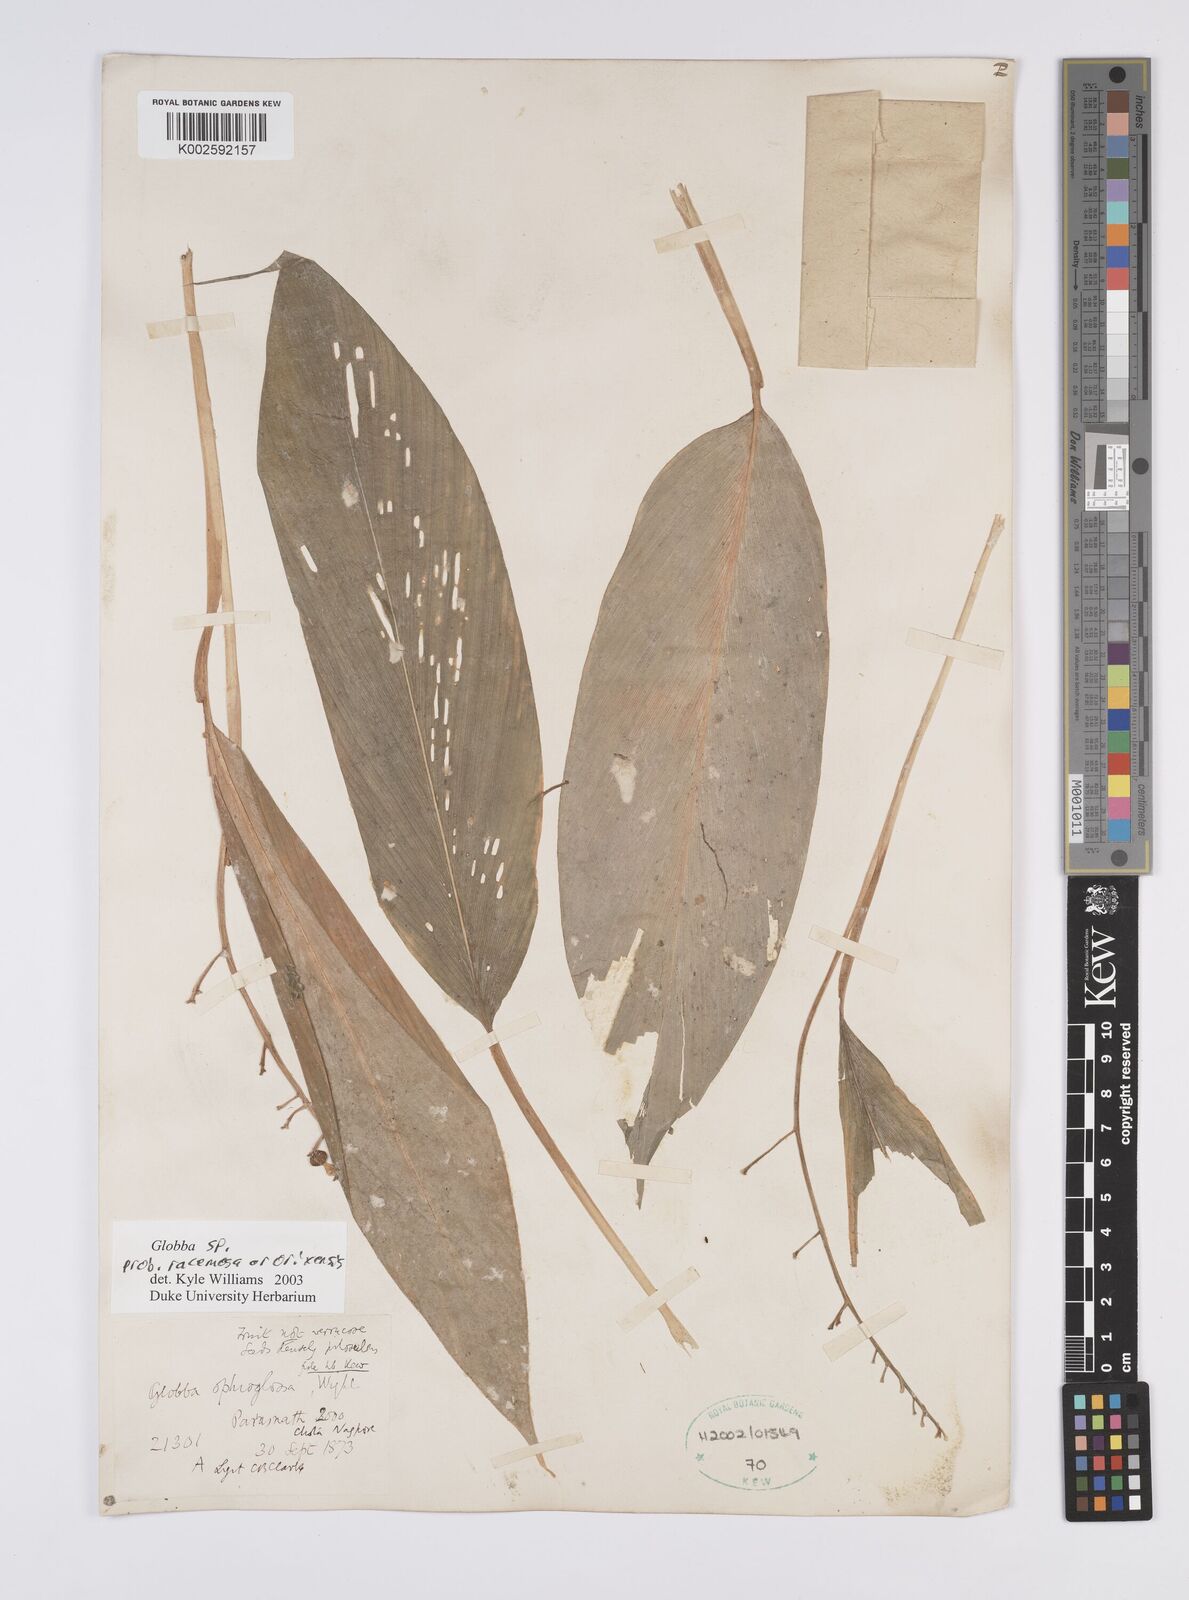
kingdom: Plantae
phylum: Tracheophyta
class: Liliopsida
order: Zingiberales
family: Zingiberaceae
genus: Globba
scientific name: Globba racemosa
